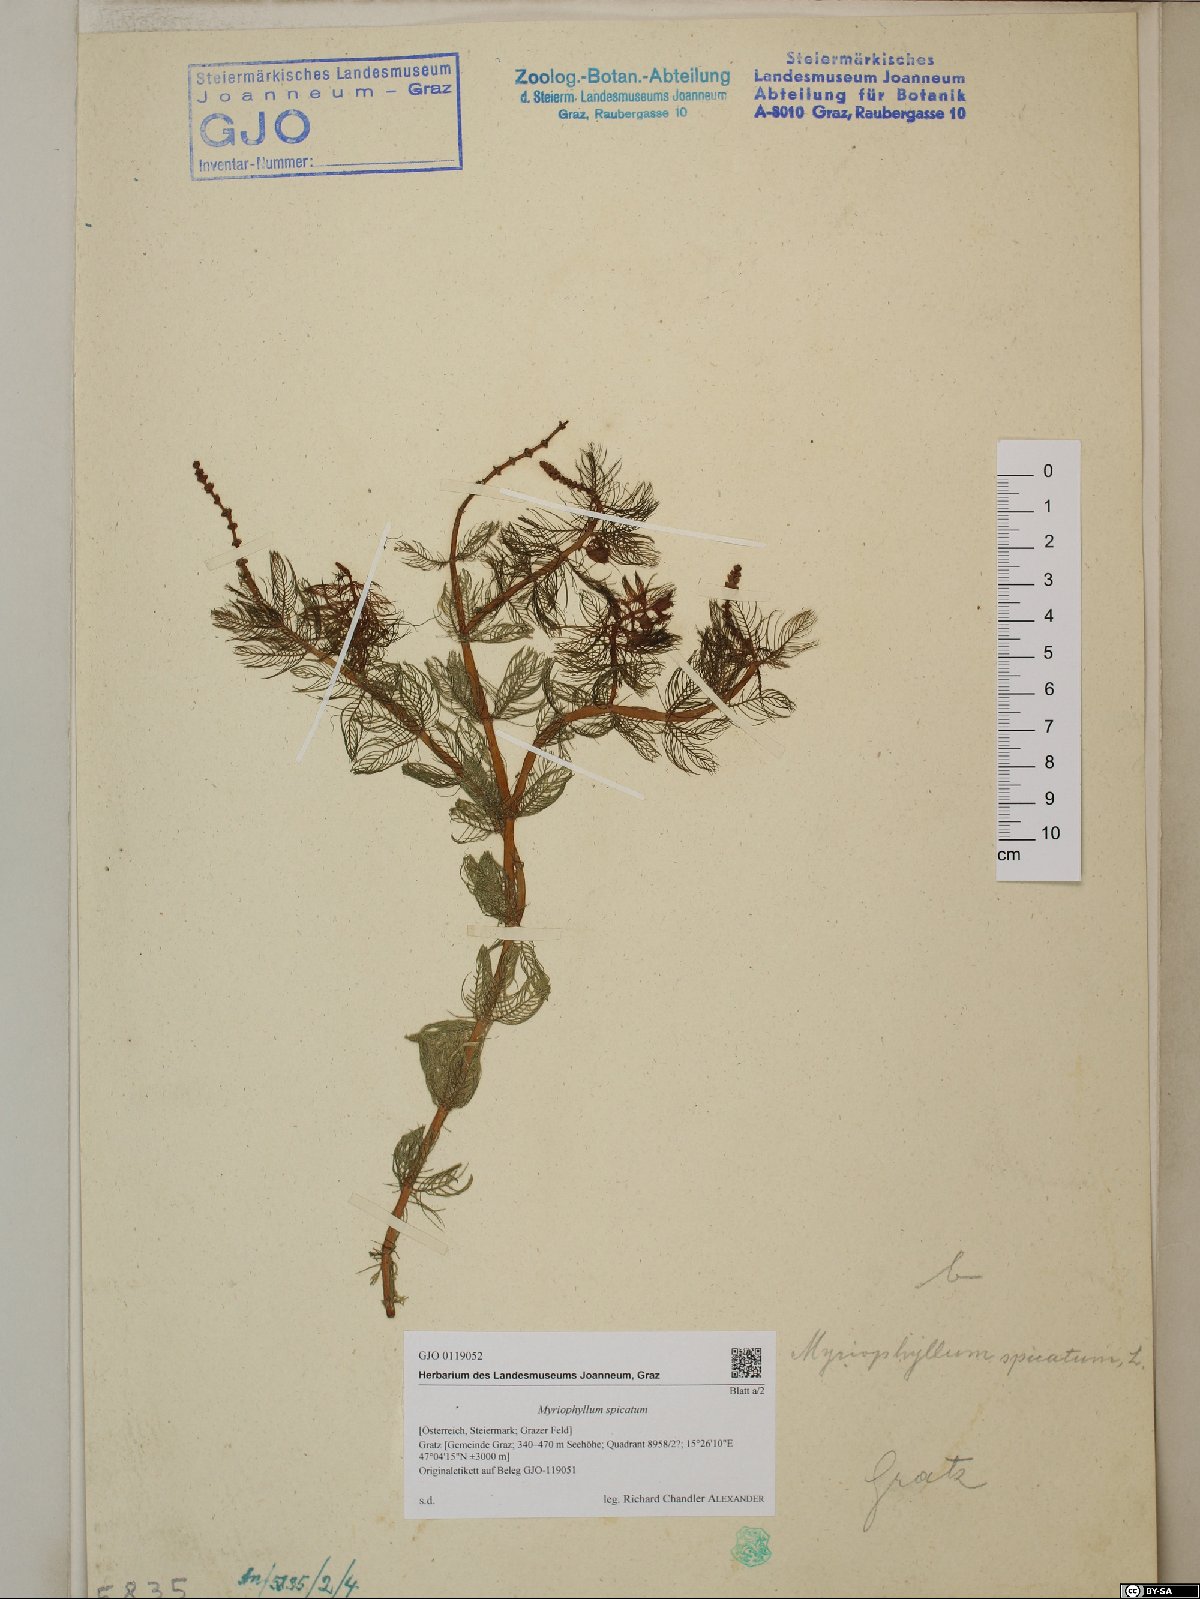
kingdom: Plantae
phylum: Tracheophyta
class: Magnoliopsida
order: Saxifragales
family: Haloragaceae
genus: Myriophyllum
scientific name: Myriophyllum spicatum
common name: Spiked water-milfoil
